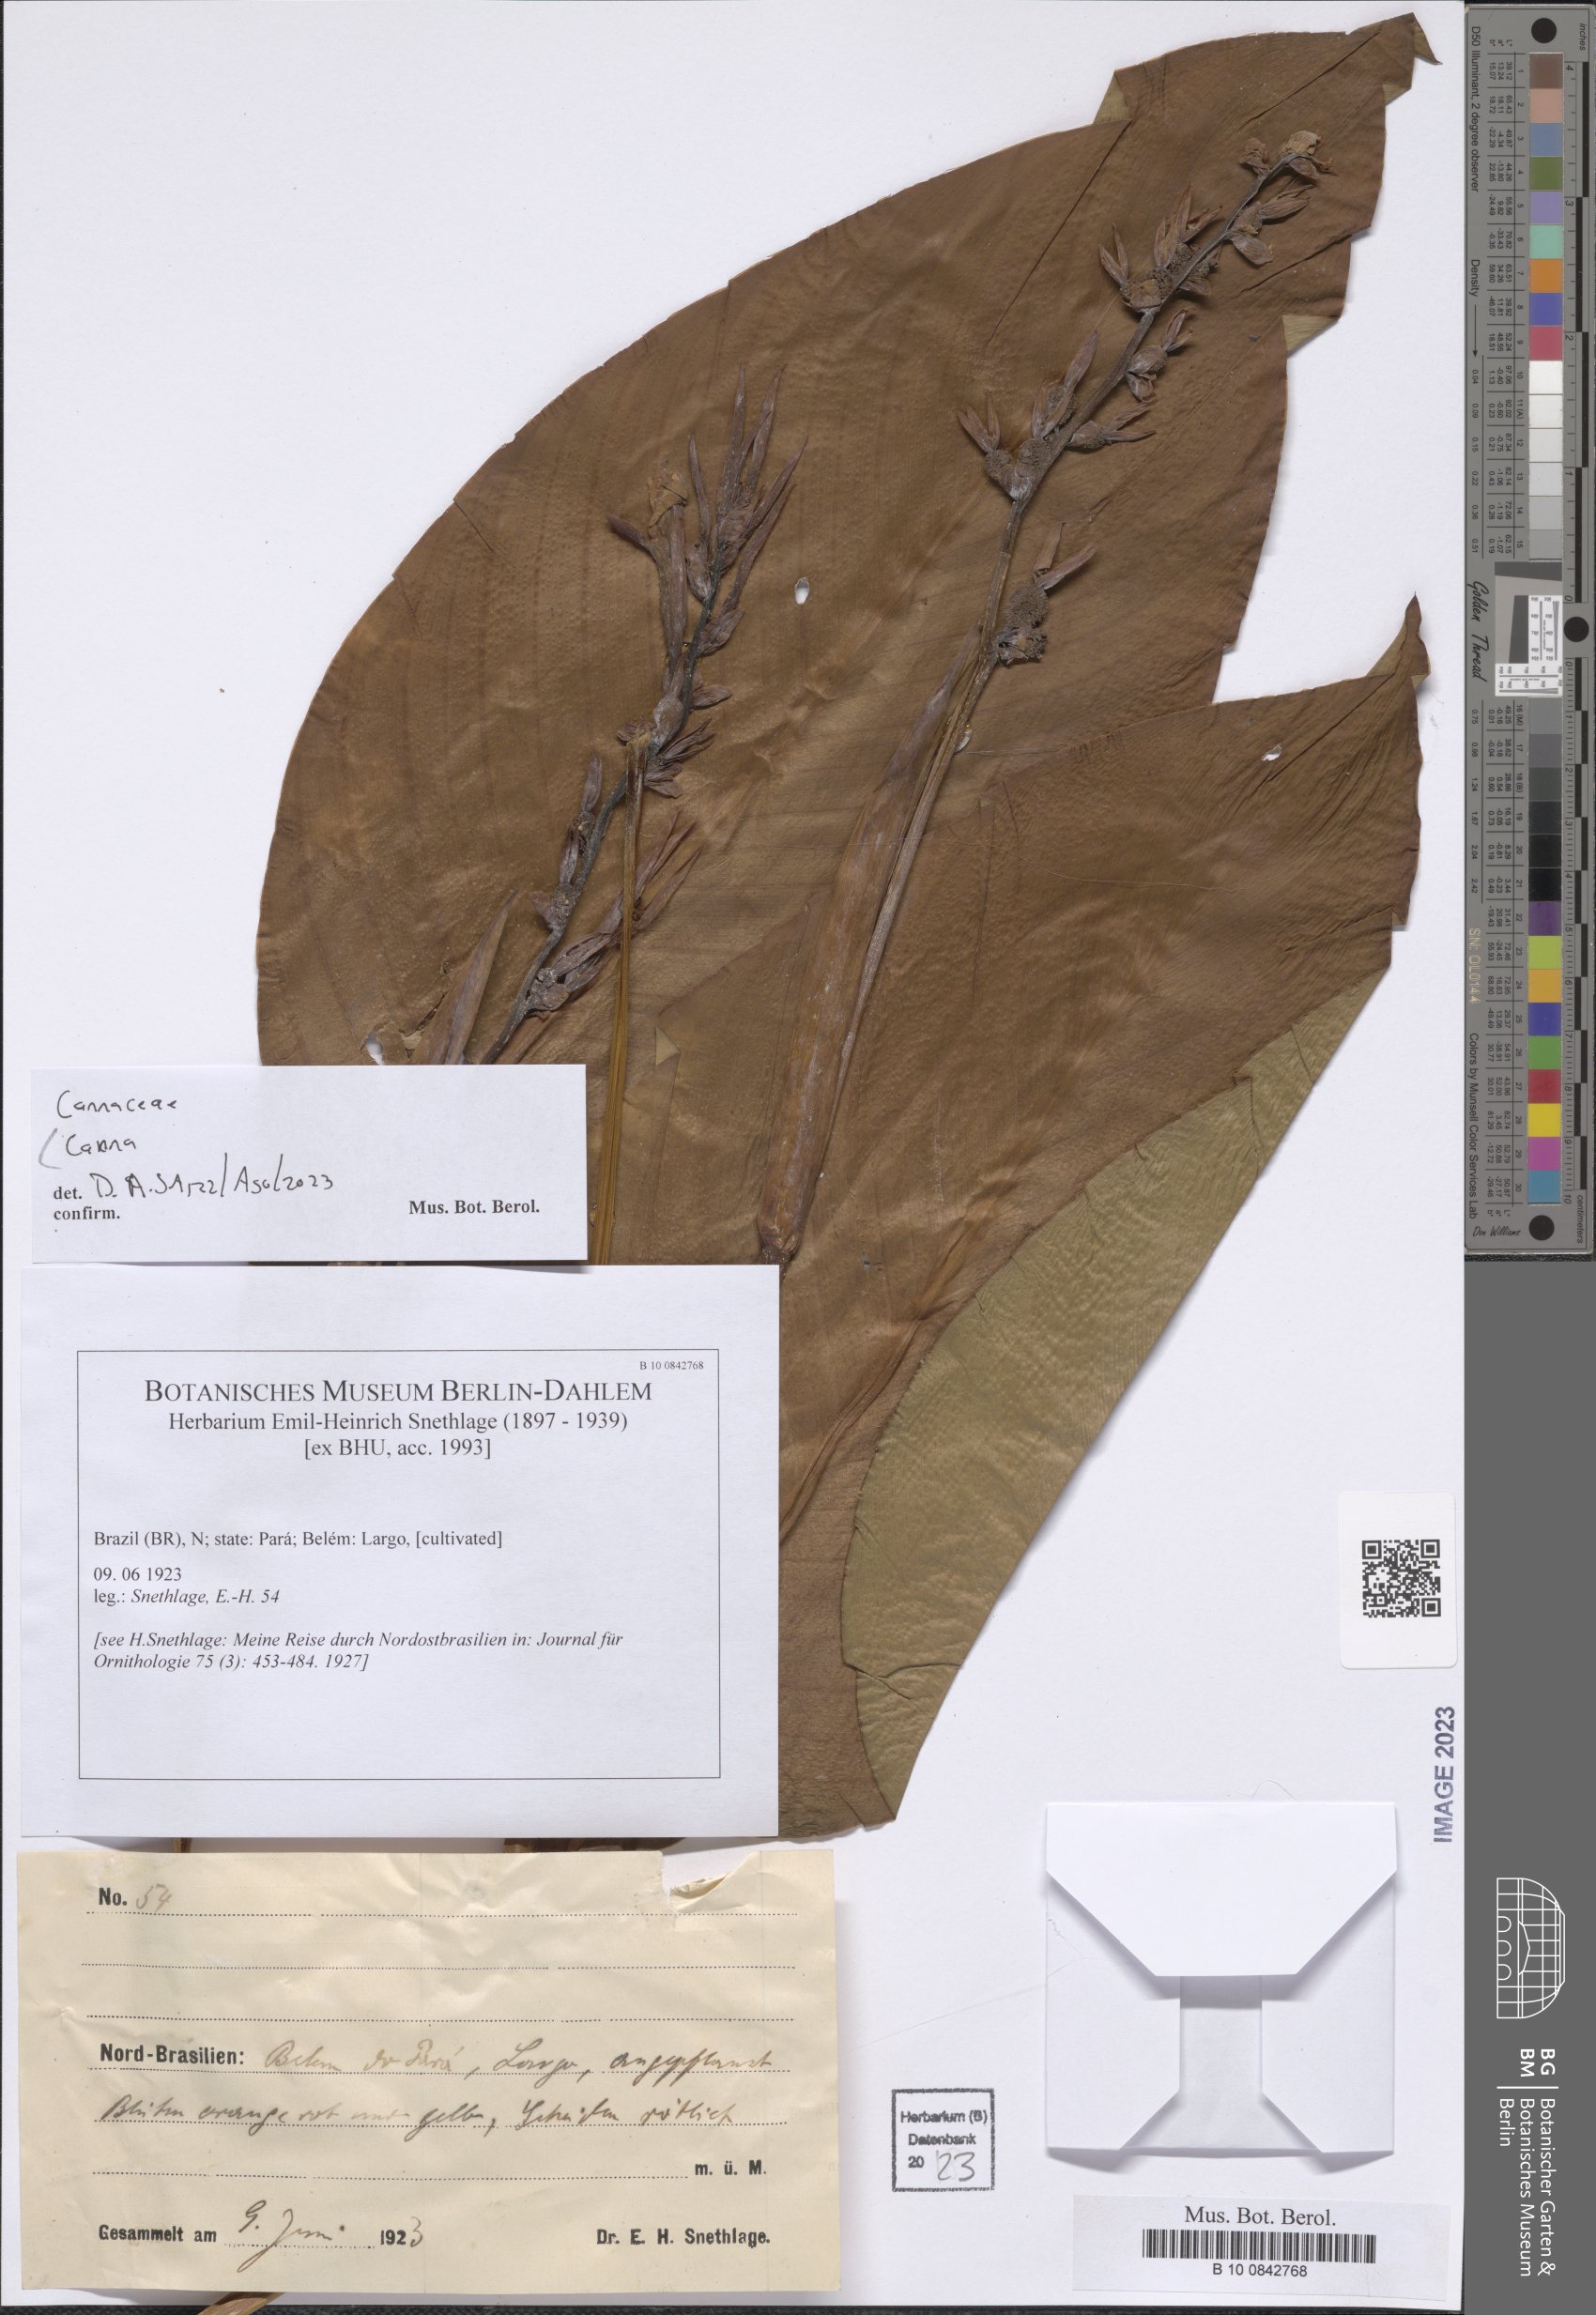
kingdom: Plantae
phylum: Tracheophyta
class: Liliopsida
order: Zingiberales
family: Cannaceae
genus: Canna
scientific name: Canna
